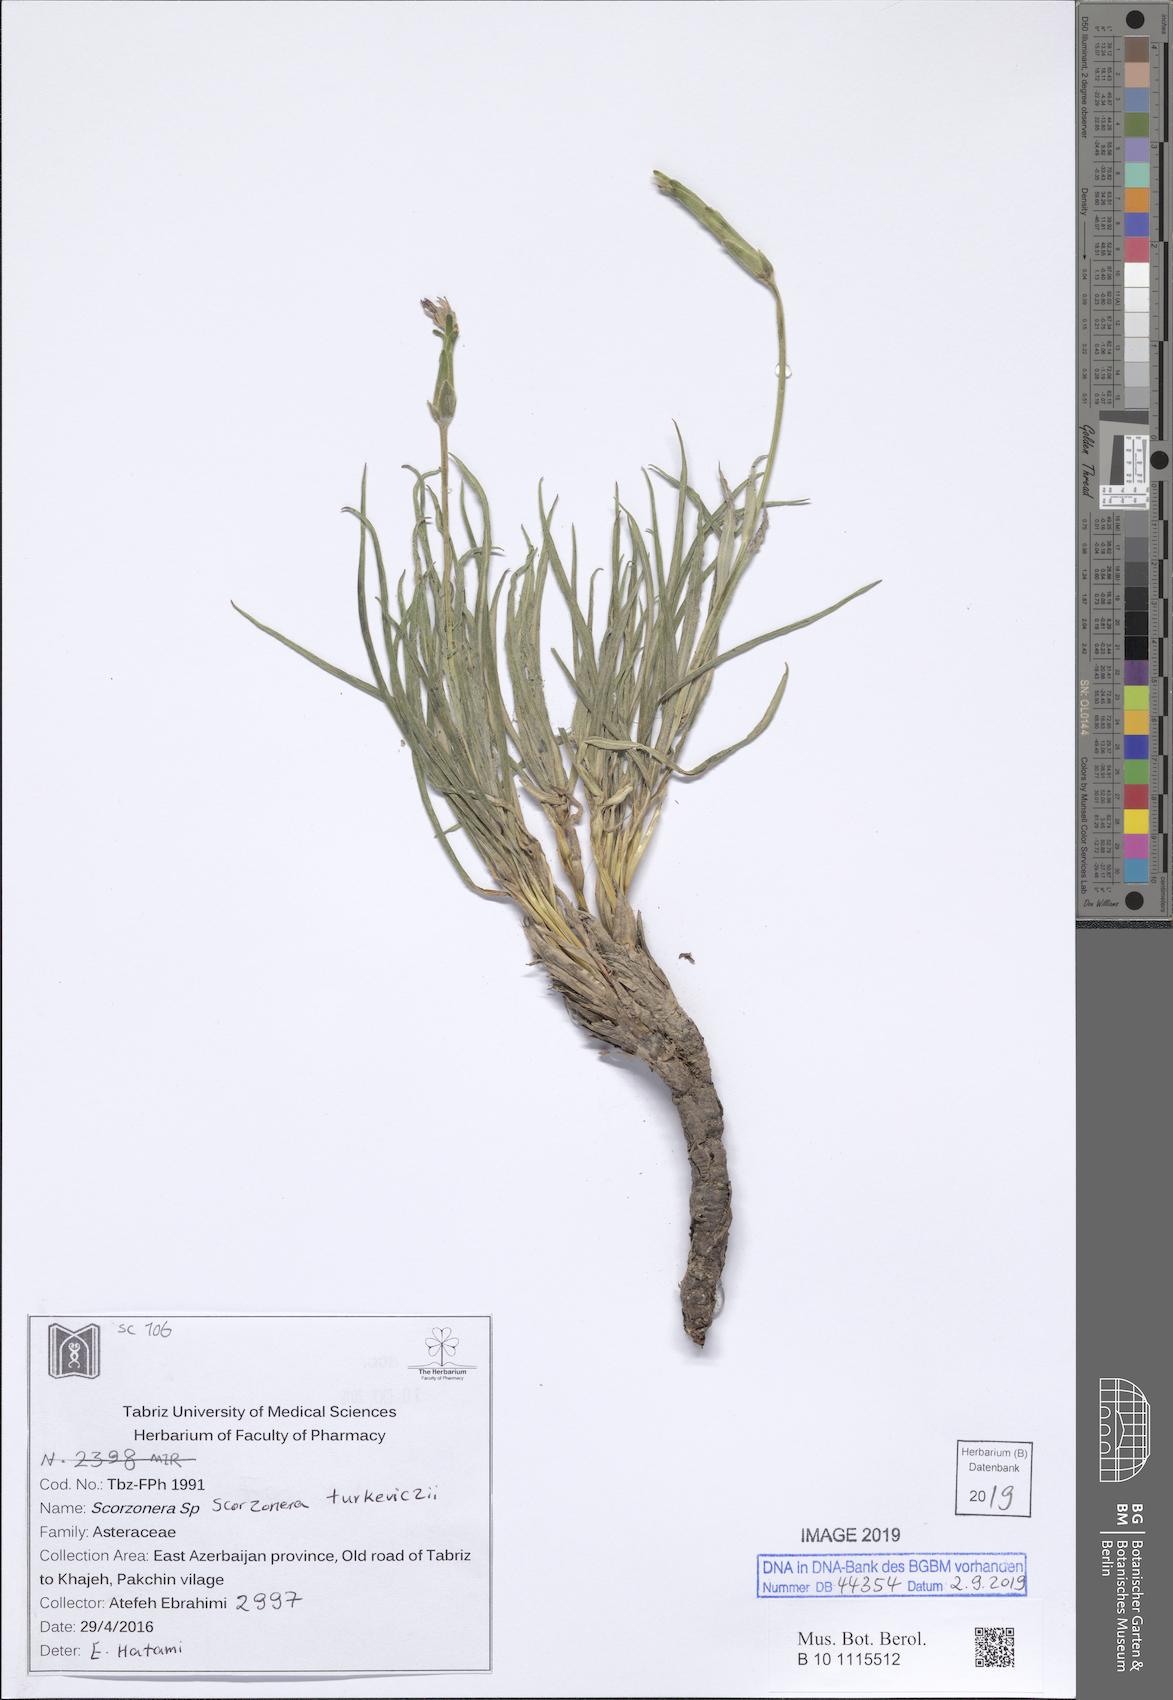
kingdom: Plantae
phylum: Tracheophyta
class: Magnoliopsida
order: Asterales
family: Asteraceae
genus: Pseudopodospermum
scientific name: Pseudopodospermum turkeviczii
